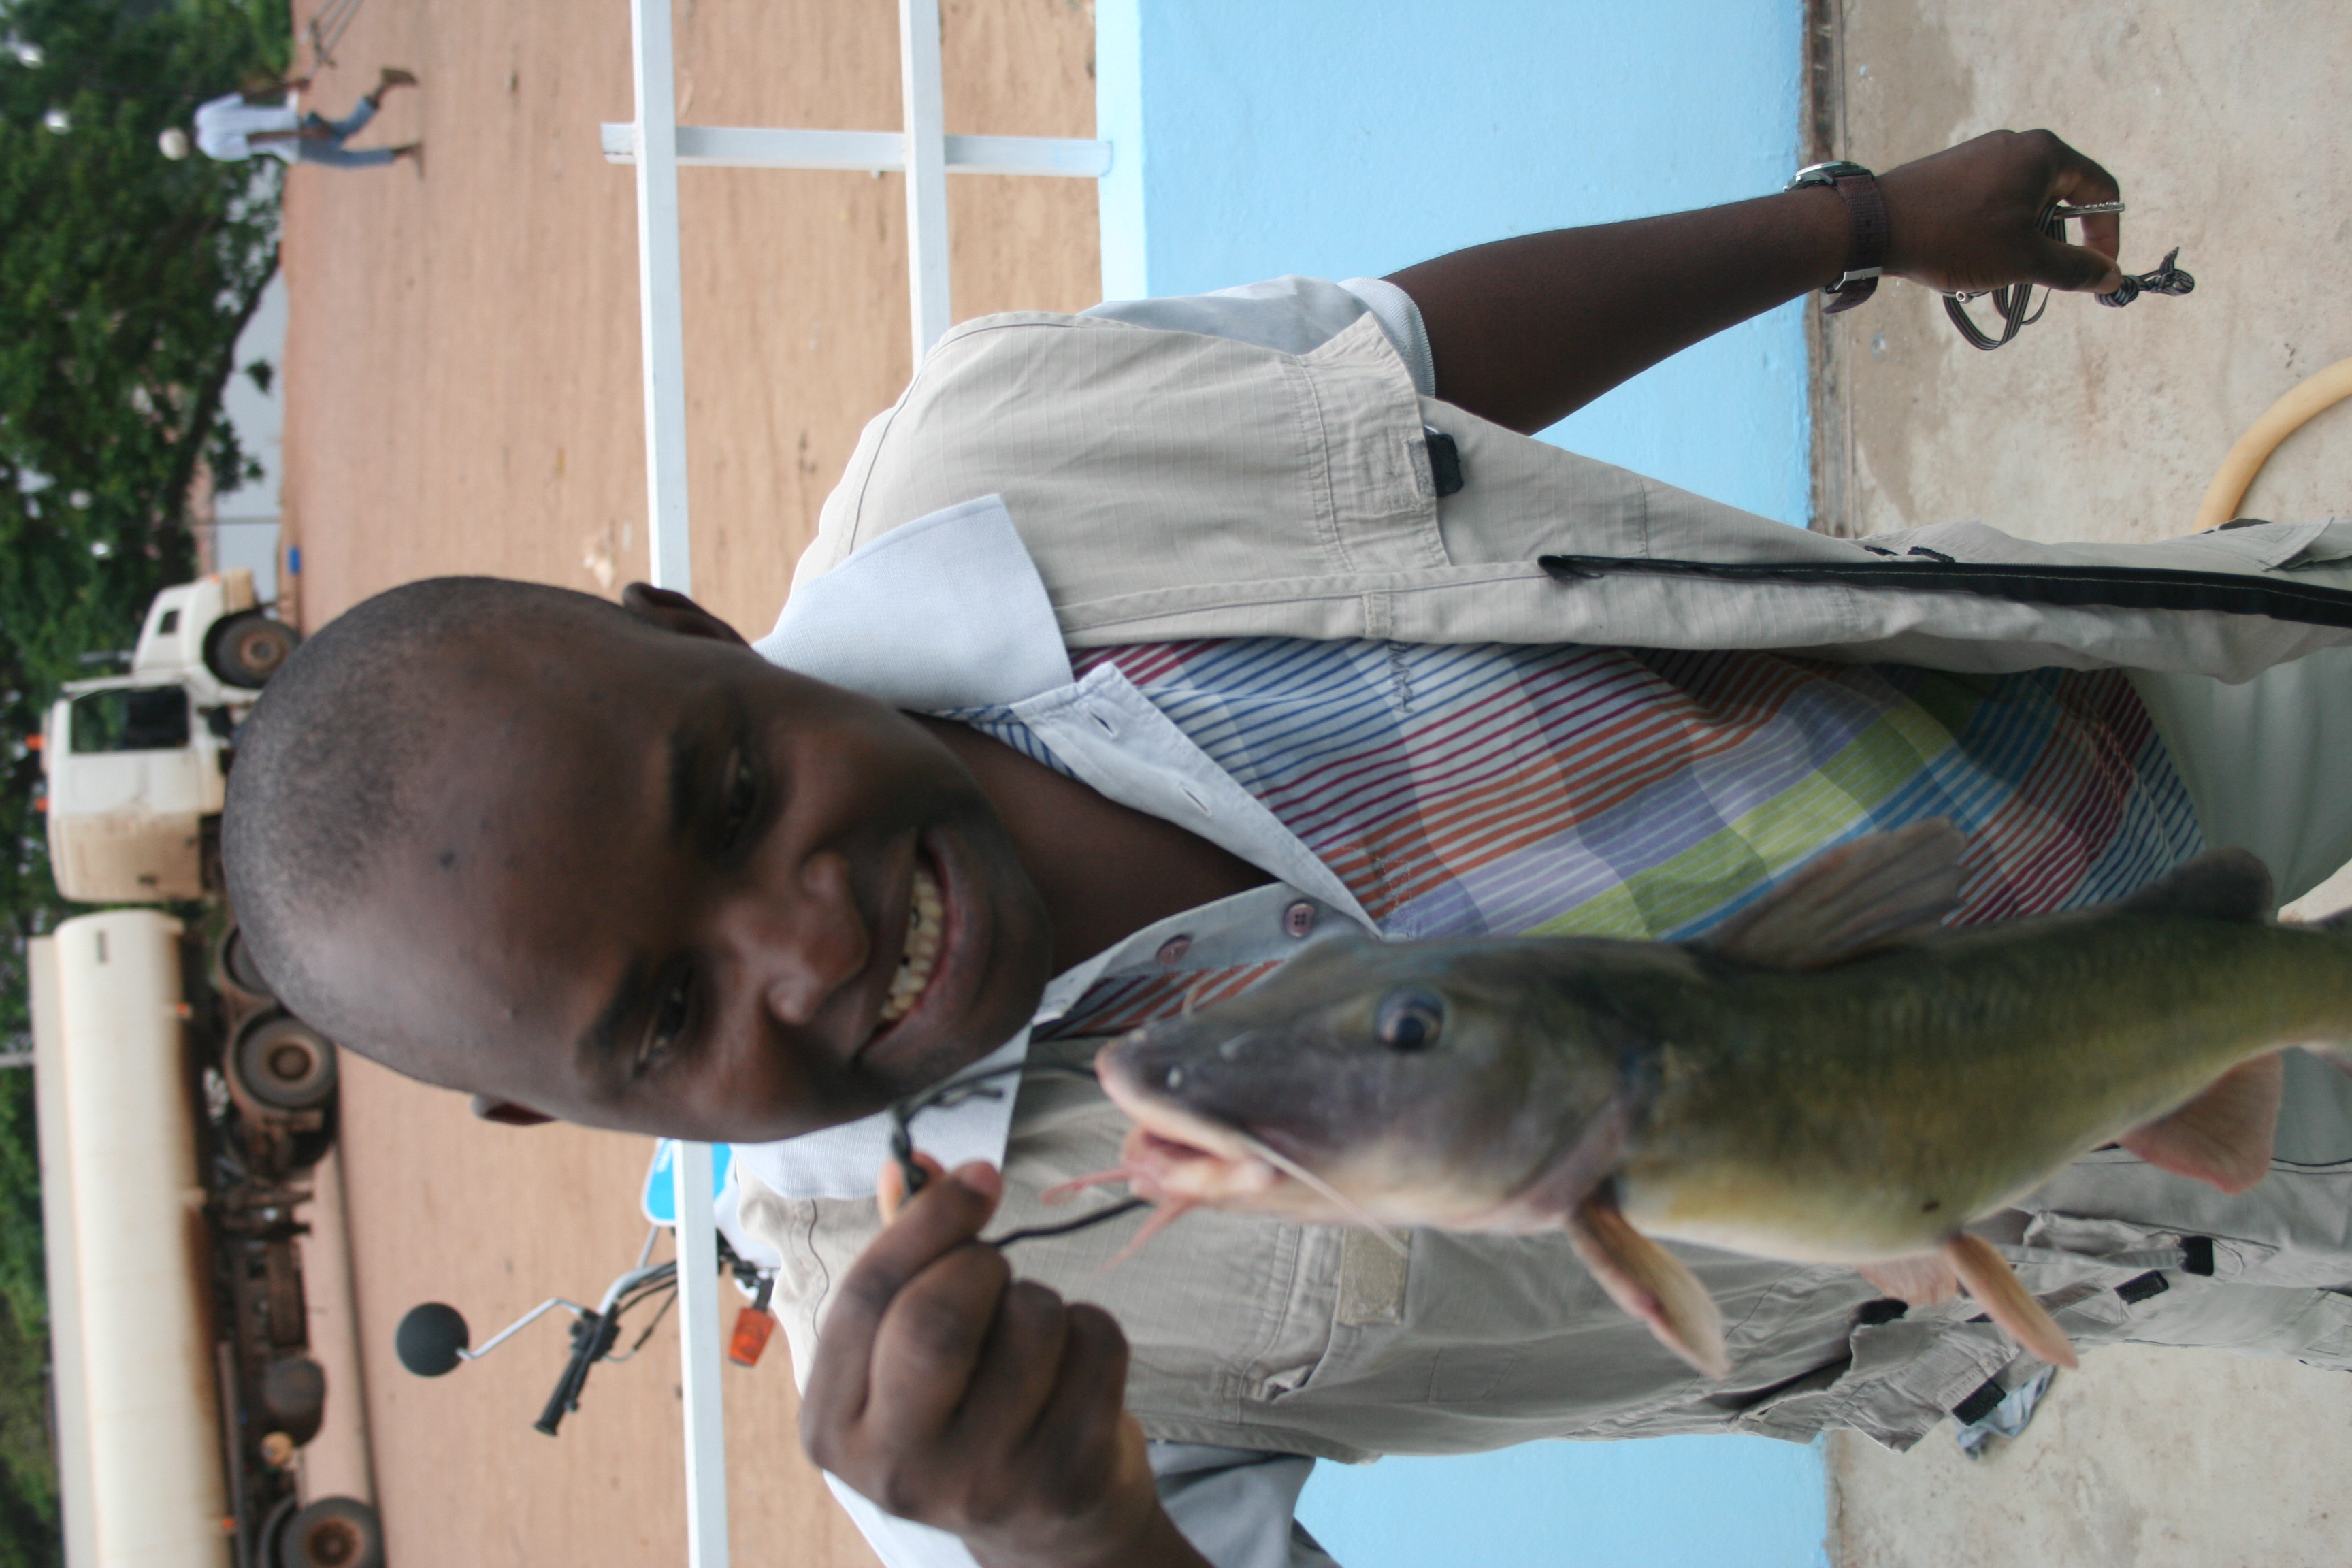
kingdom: Animalia
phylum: Chordata
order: Siluriformes
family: Claroteidae
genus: Chrysichthys
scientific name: Chrysichthys
